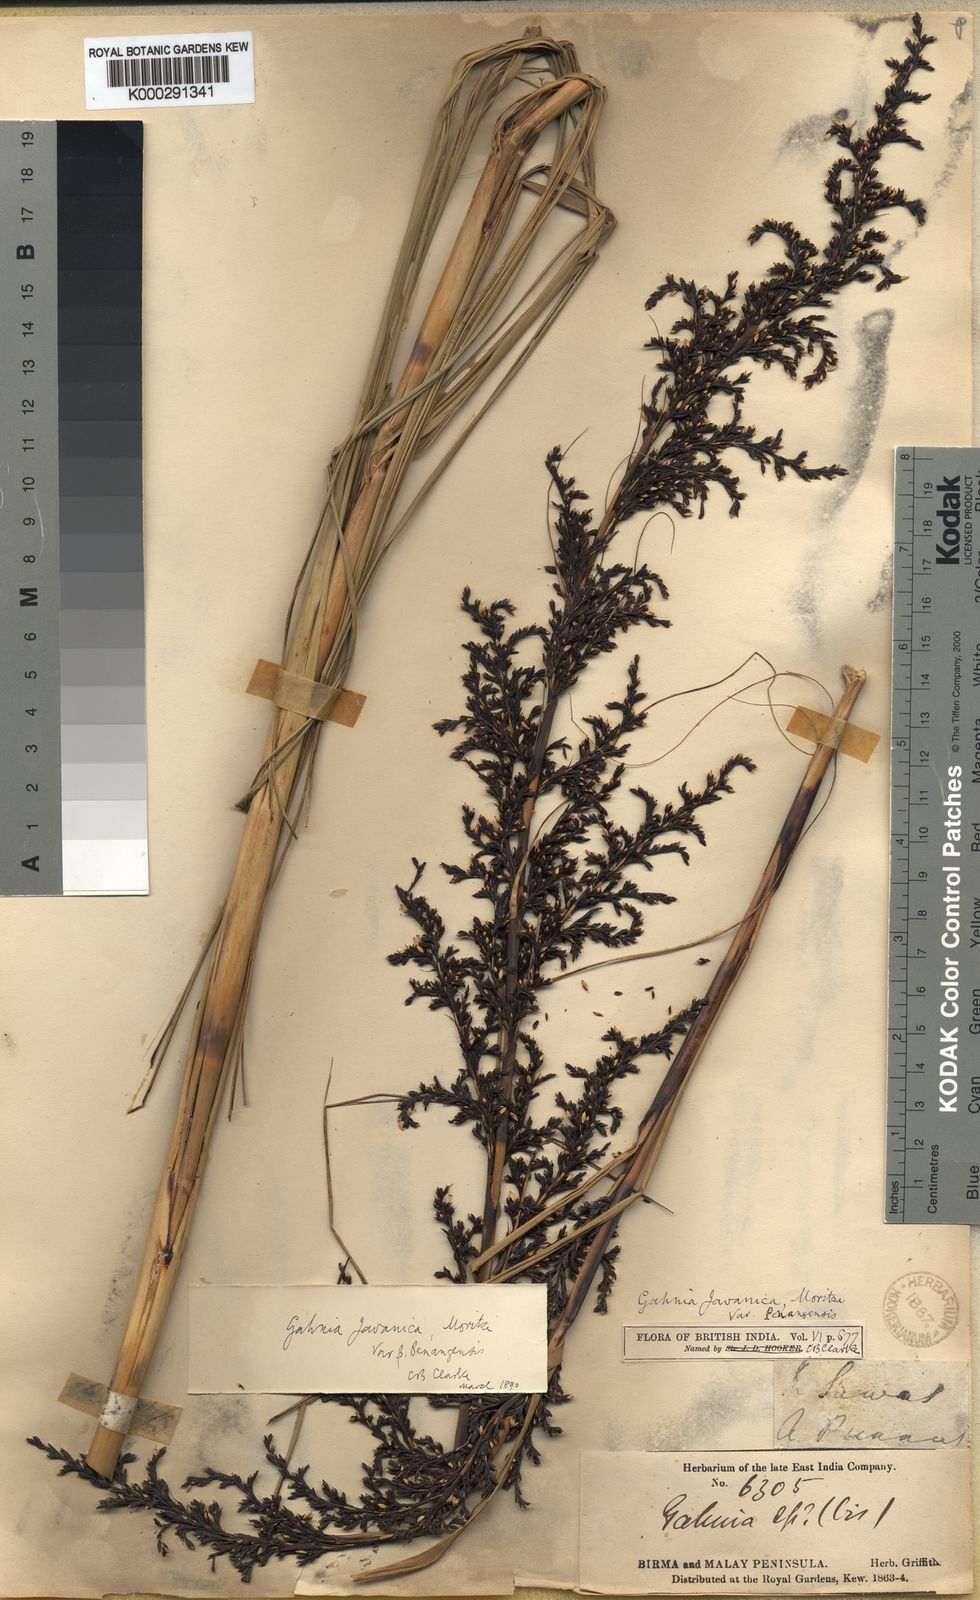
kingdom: Plantae
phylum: Tracheophyta
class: Liliopsida
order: Poales
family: Cyperaceae
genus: Gahnia
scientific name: Gahnia baniensis
